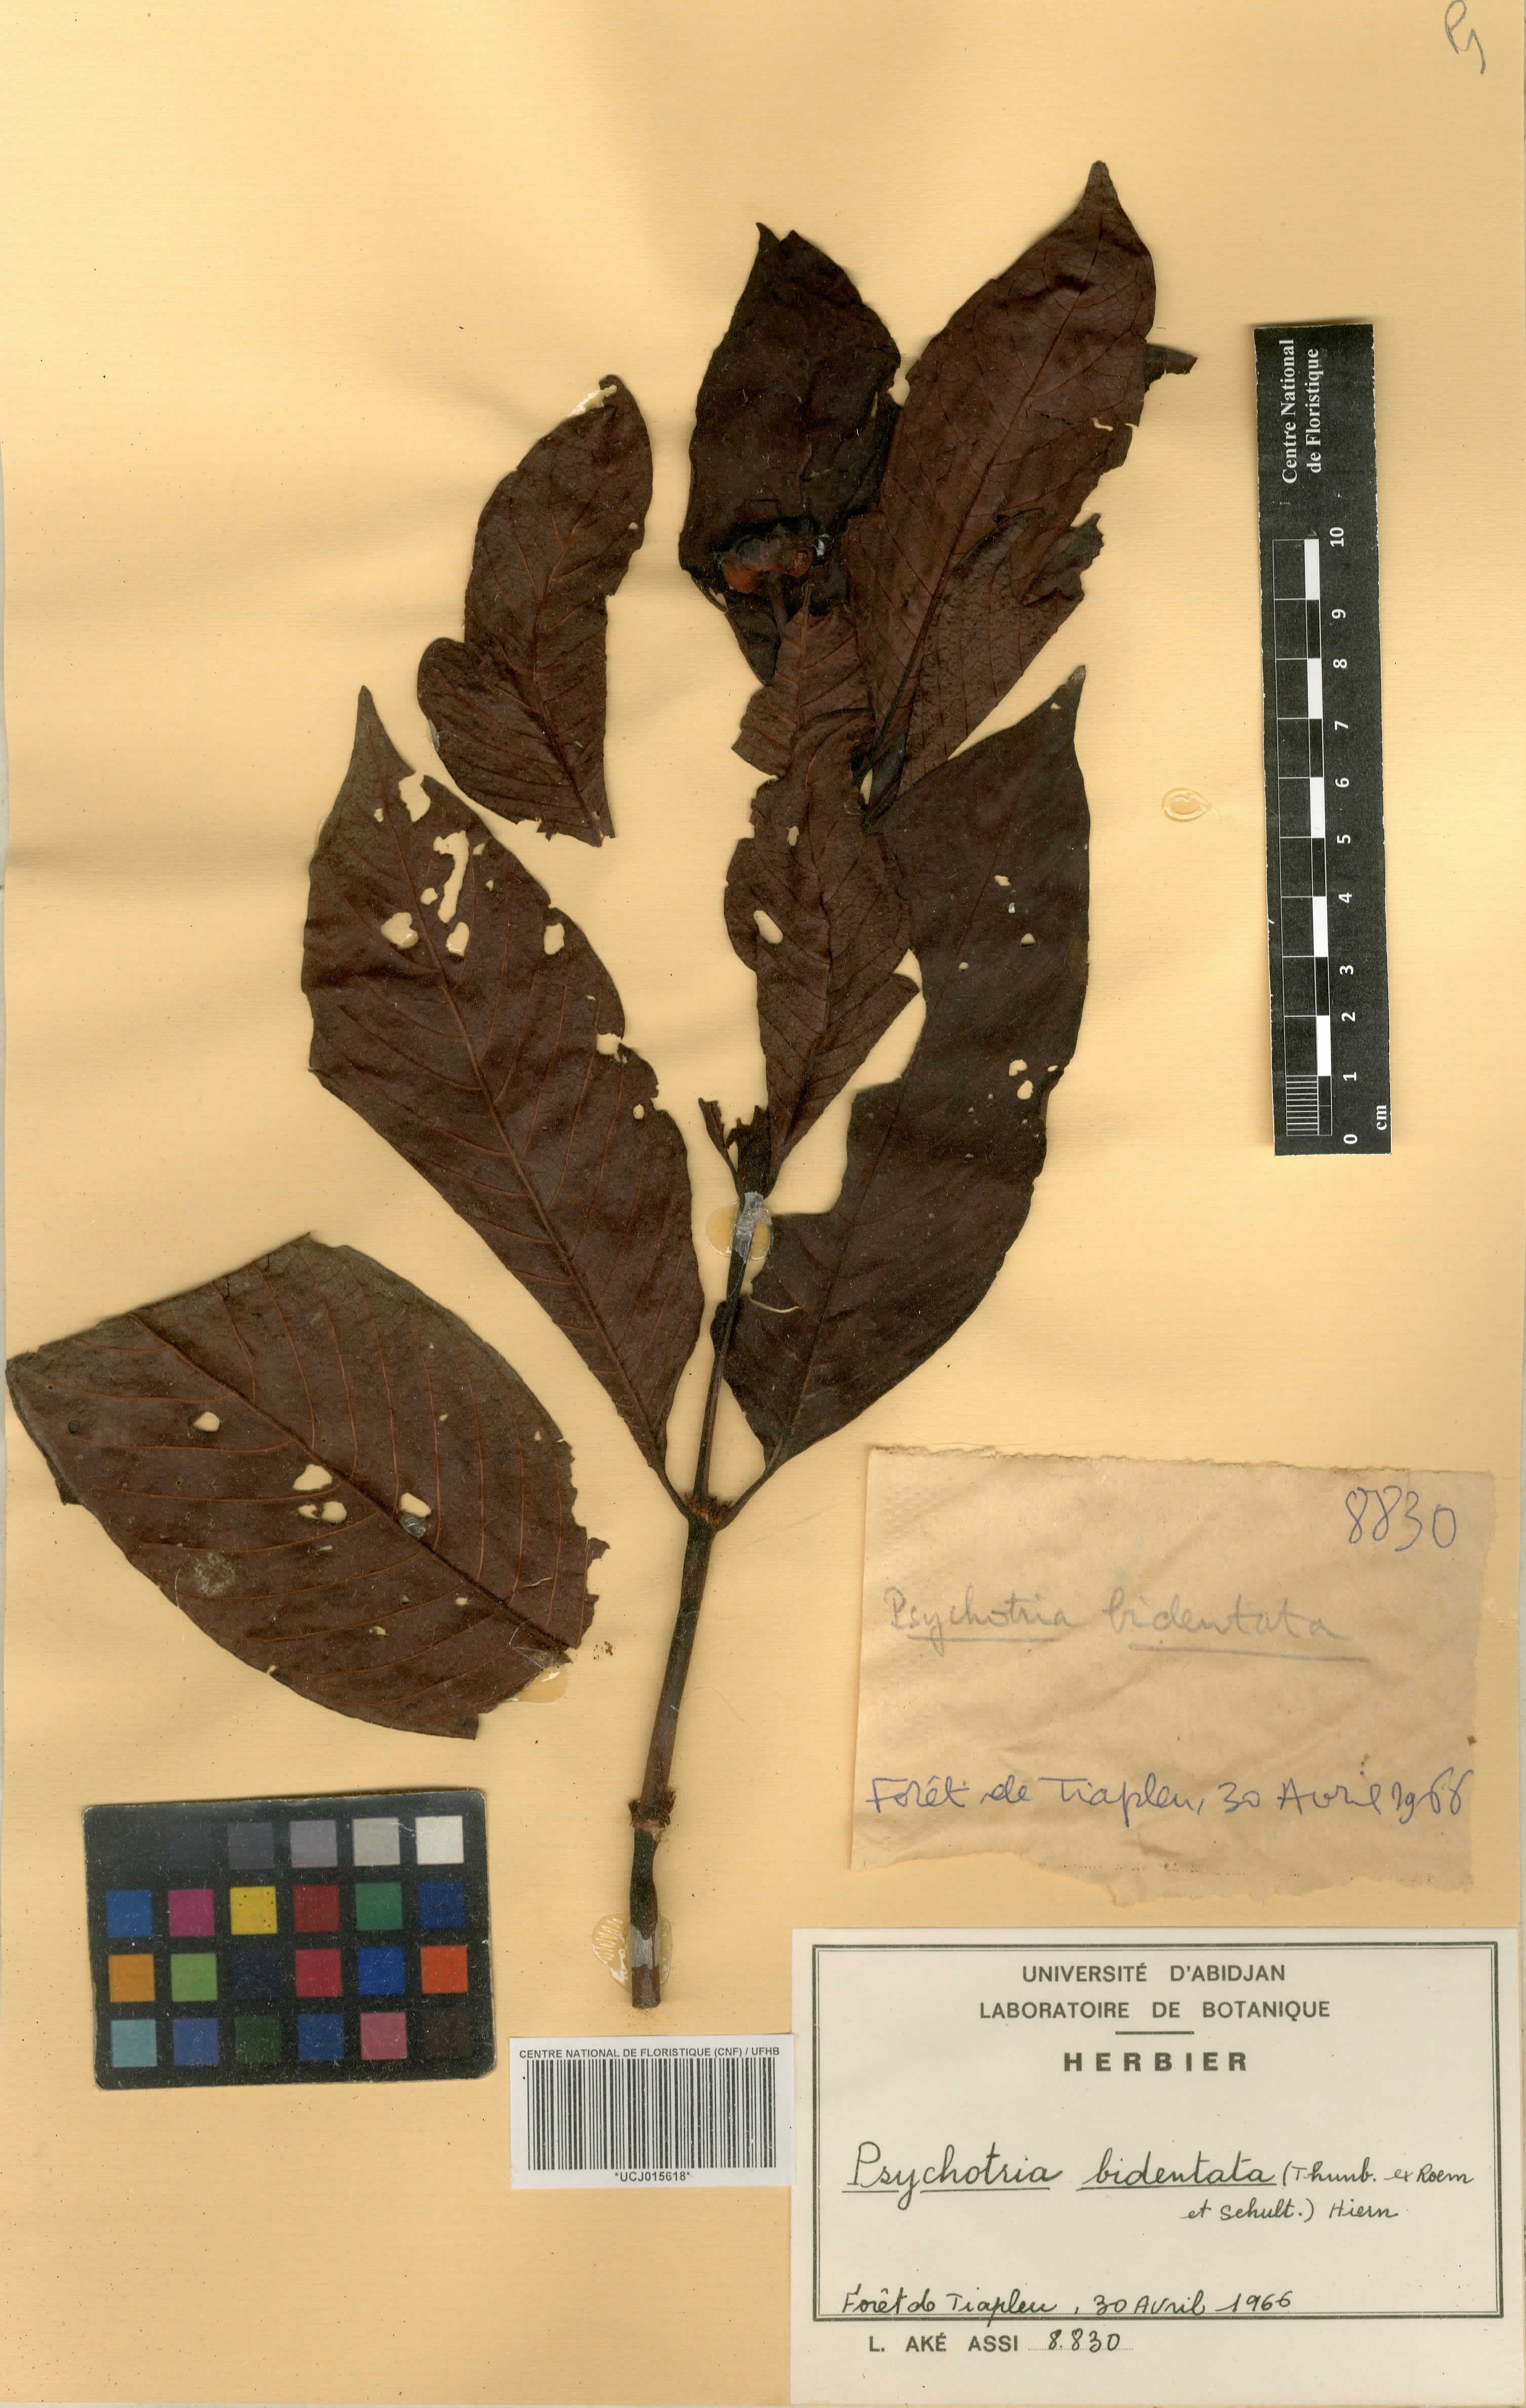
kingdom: Plantae
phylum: Tracheophyta
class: Magnoliopsida
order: Gentianales
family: Rubiaceae
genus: Psychotria
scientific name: Psychotria bidentata
